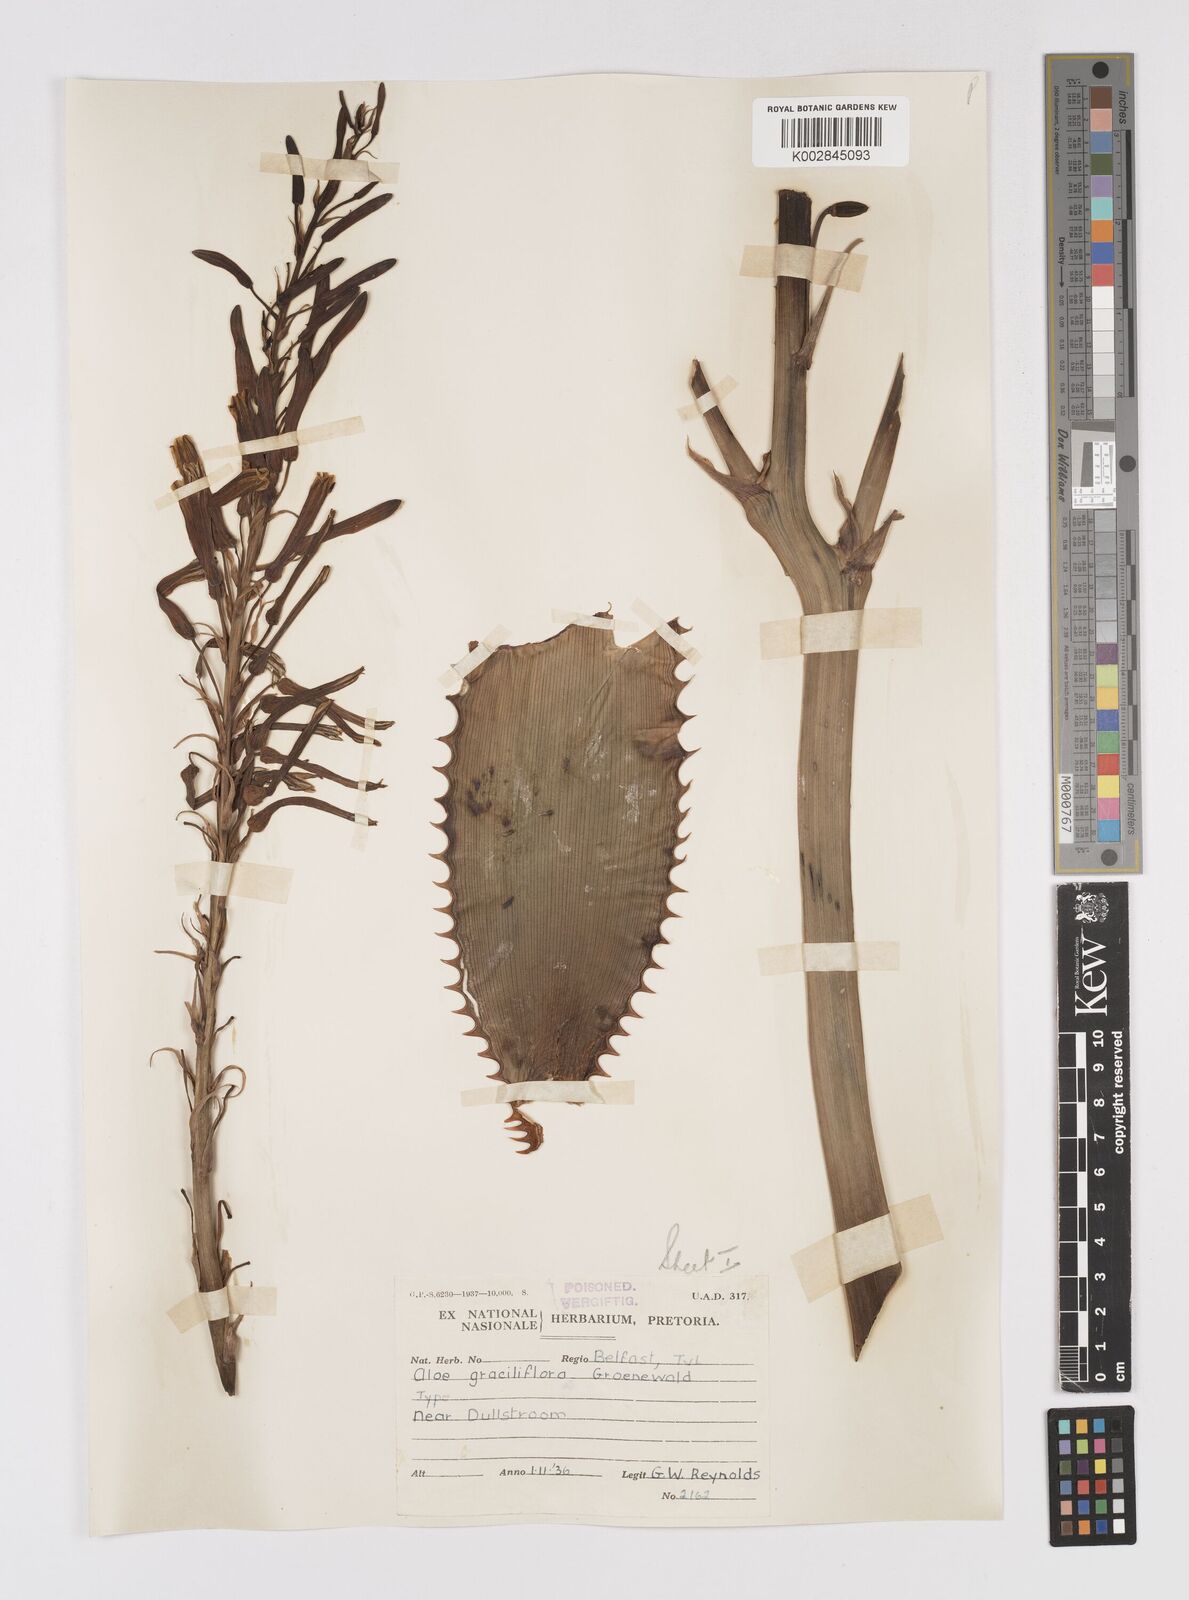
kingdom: Plantae
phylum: Tracheophyta
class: Liliopsida
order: Asparagales
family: Asphodelaceae
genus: Aloe
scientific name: Aloe graciliflora
